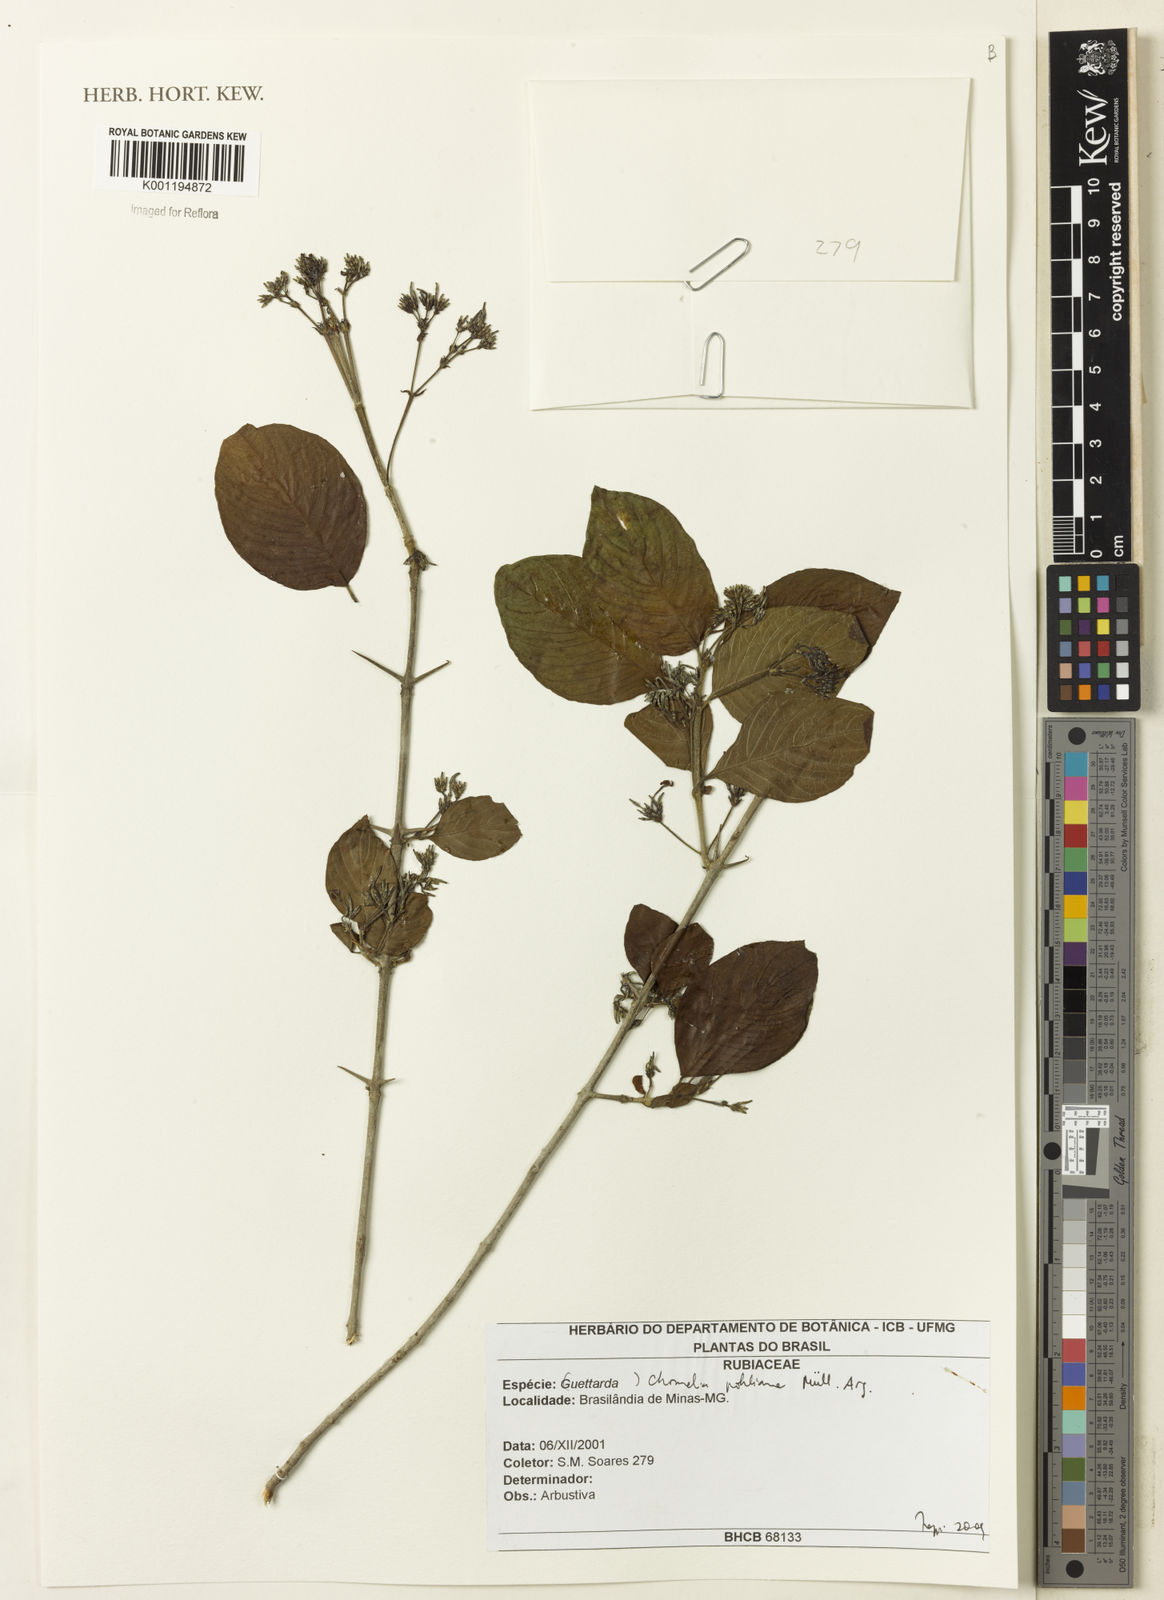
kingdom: Plantae
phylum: Tracheophyta
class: Magnoliopsida
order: Gentianales
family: Rubiaceae
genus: Chomelia
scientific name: Chomelia
